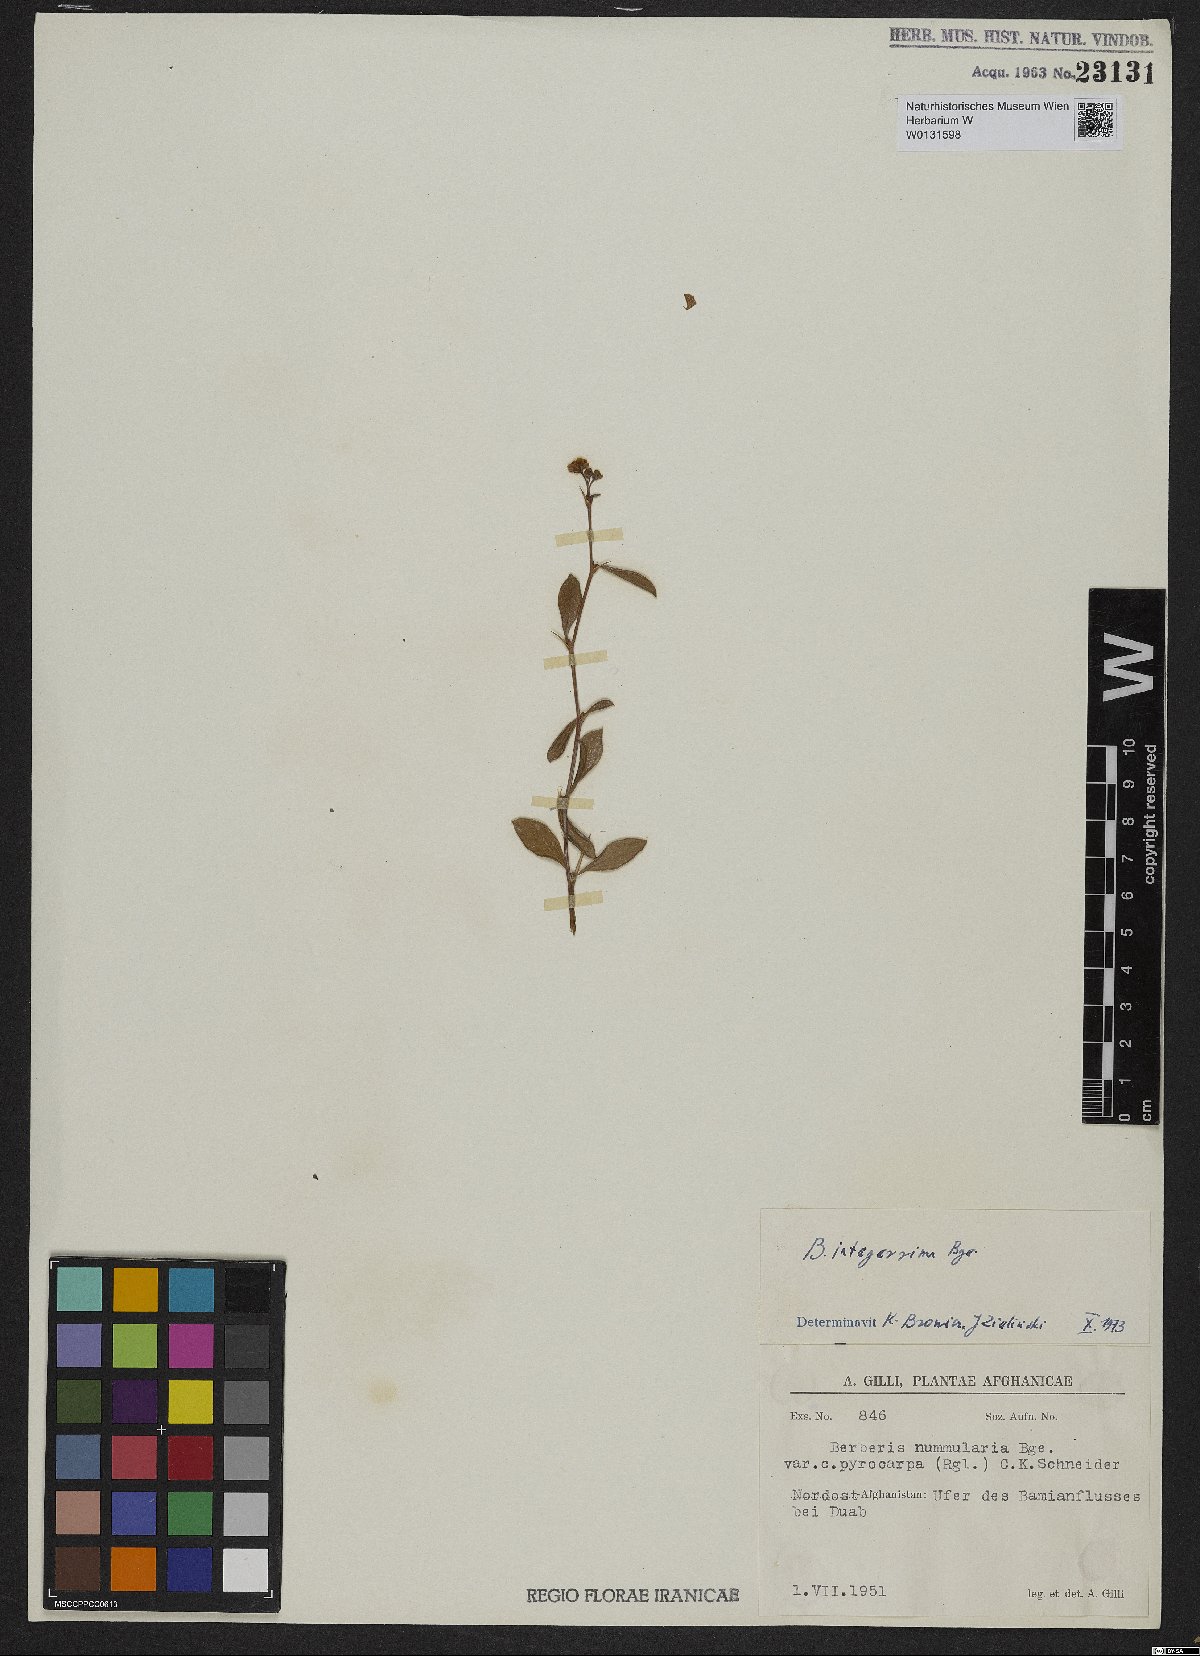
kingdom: Plantae
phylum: Tracheophyta
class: Magnoliopsida
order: Ranunculales
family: Berberidaceae
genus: Berberis
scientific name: Berberis integerrima
